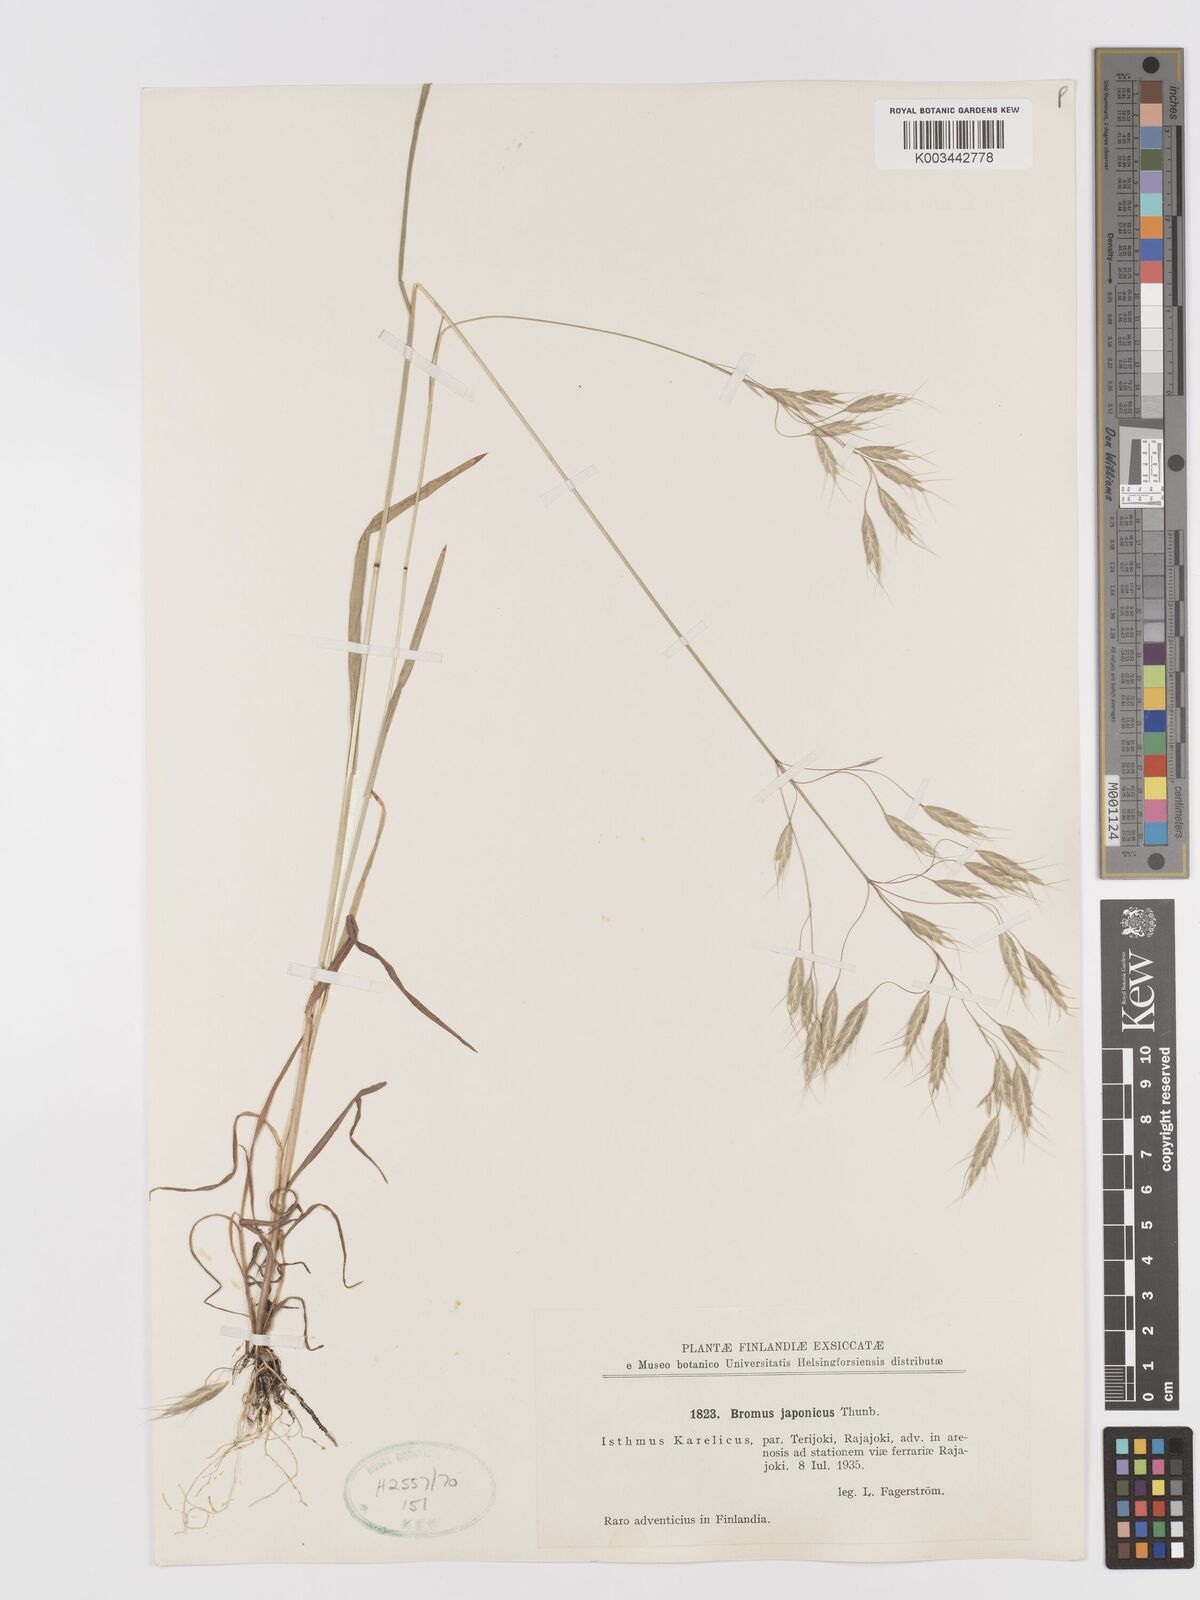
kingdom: Plantae
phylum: Tracheophyta
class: Liliopsida
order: Poales
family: Poaceae
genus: Bromus
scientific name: Bromus japonicus
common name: Japanese brome
